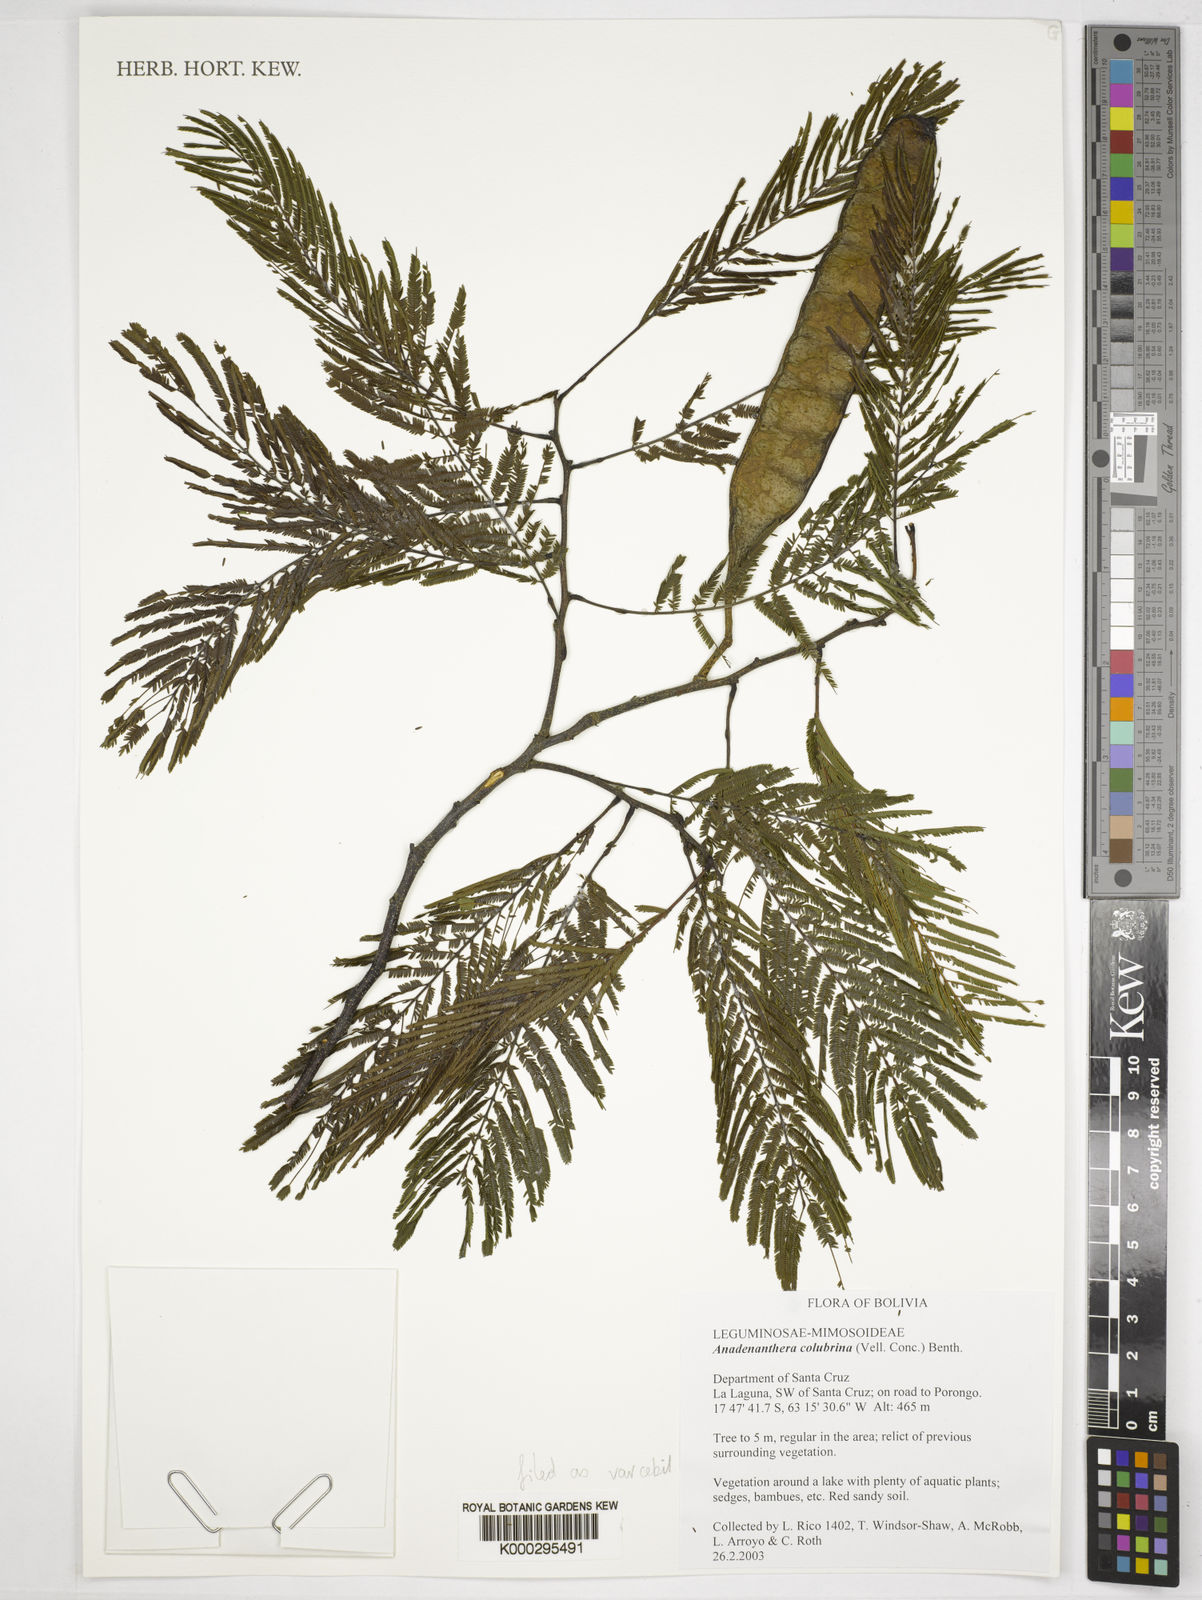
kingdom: Plantae
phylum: Tracheophyta
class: Magnoliopsida
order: Fabales
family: Fabaceae
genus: Anadenanthera
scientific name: Anadenanthera
